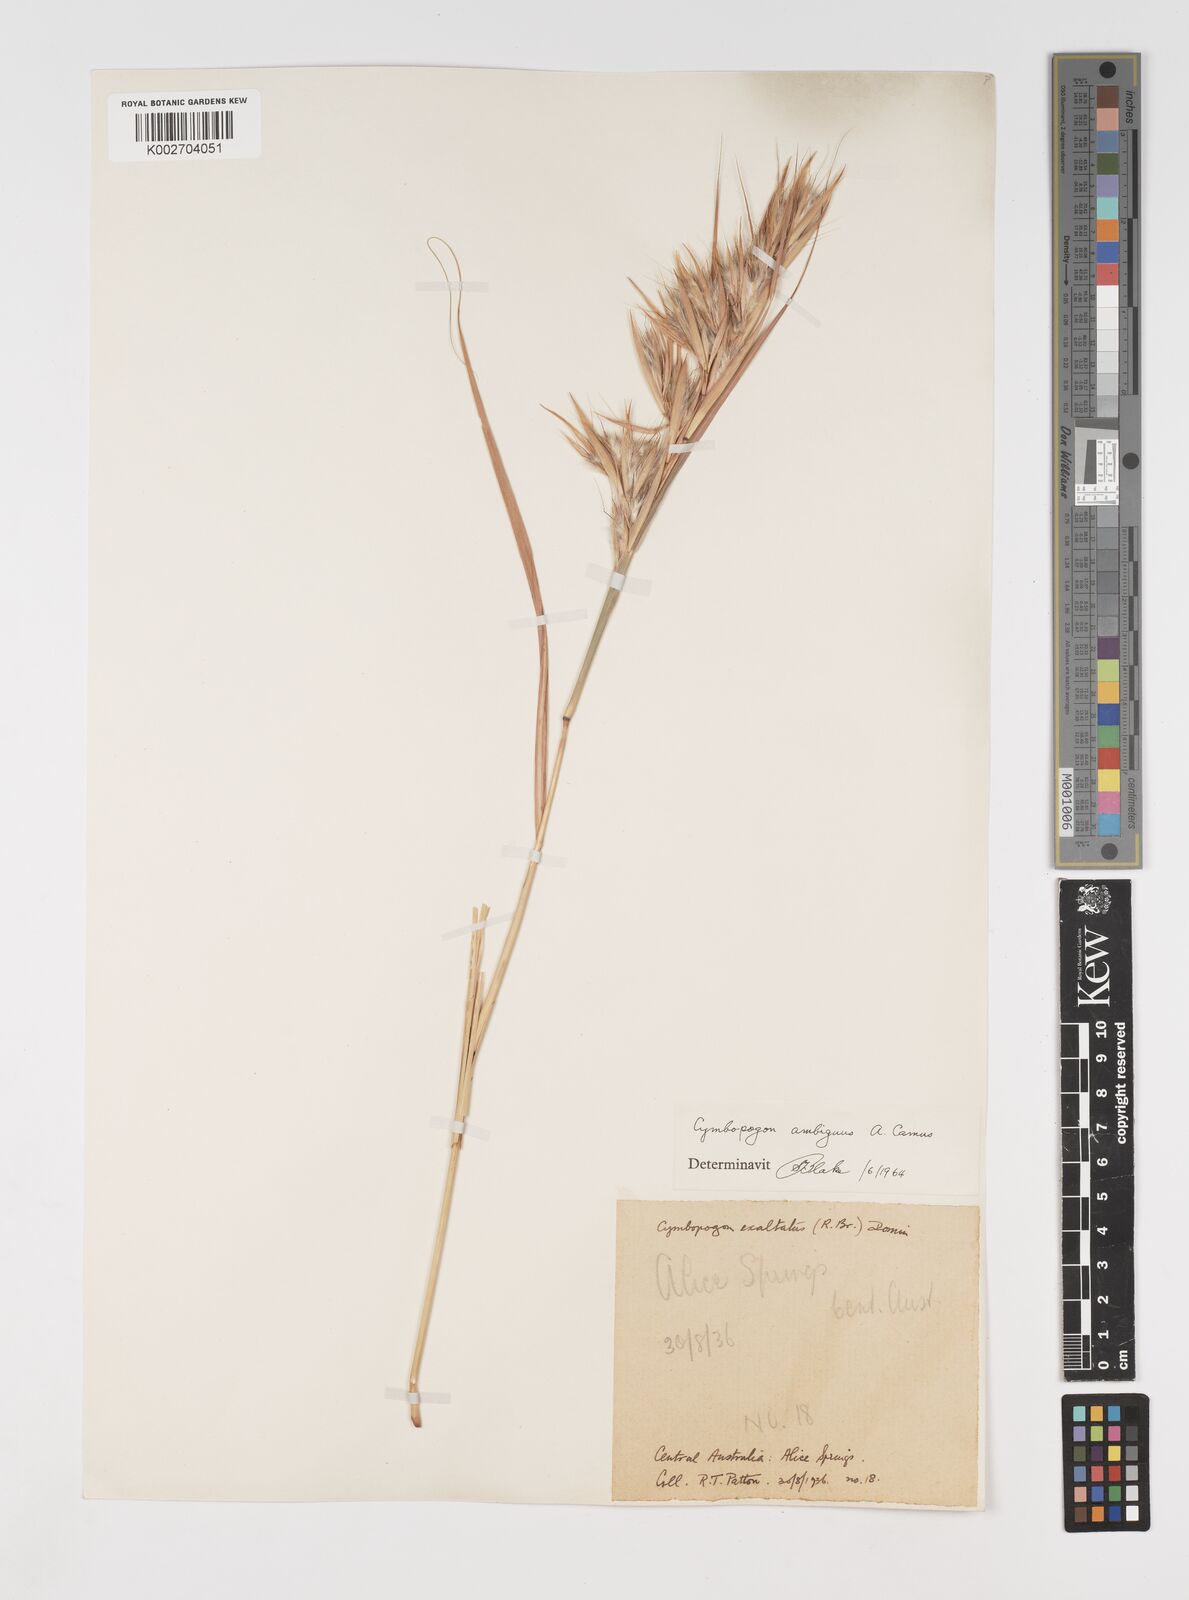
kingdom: Plantae
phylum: Tracheophyta
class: Liliopsida
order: Poales
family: Poaceae
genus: Cymbopogon
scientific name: Cymbopogon ambiguus
